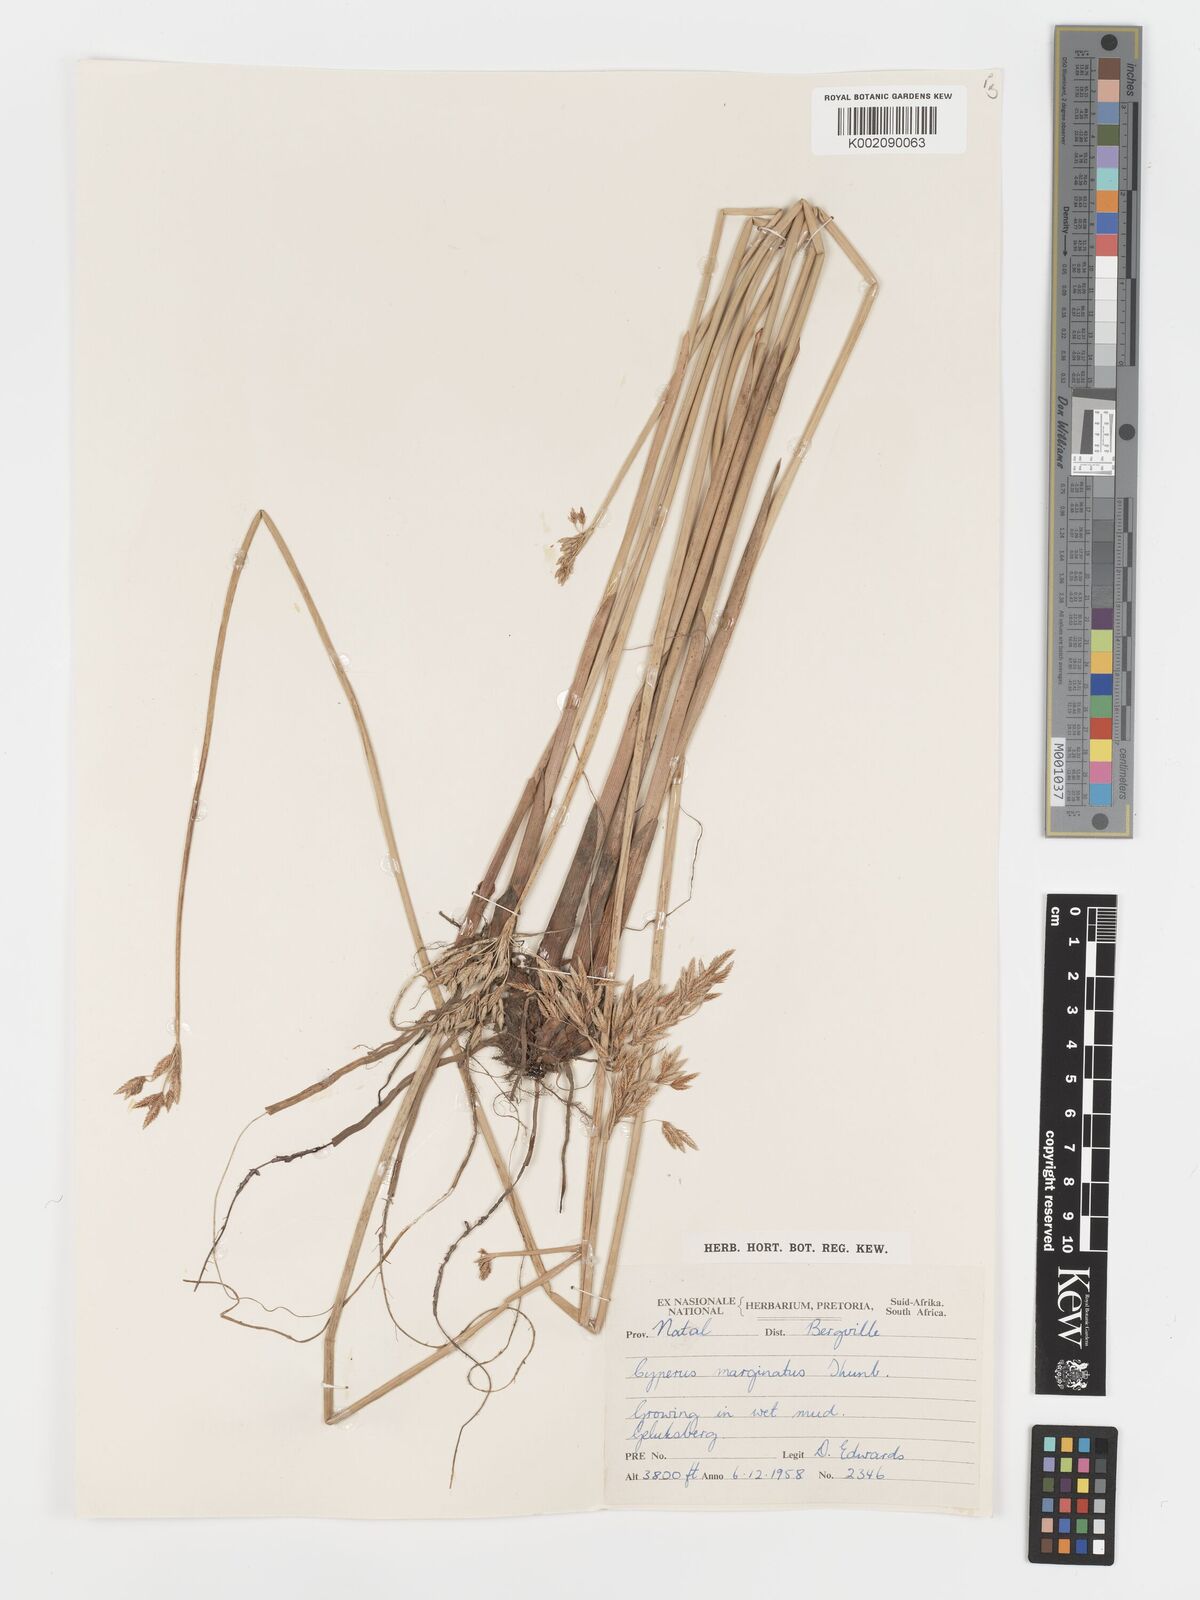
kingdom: Plantae
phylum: Tracheophyta
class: Liliopsida
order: Poales
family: Cyperaceae
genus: Cyperus
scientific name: Cyperus marginatus
